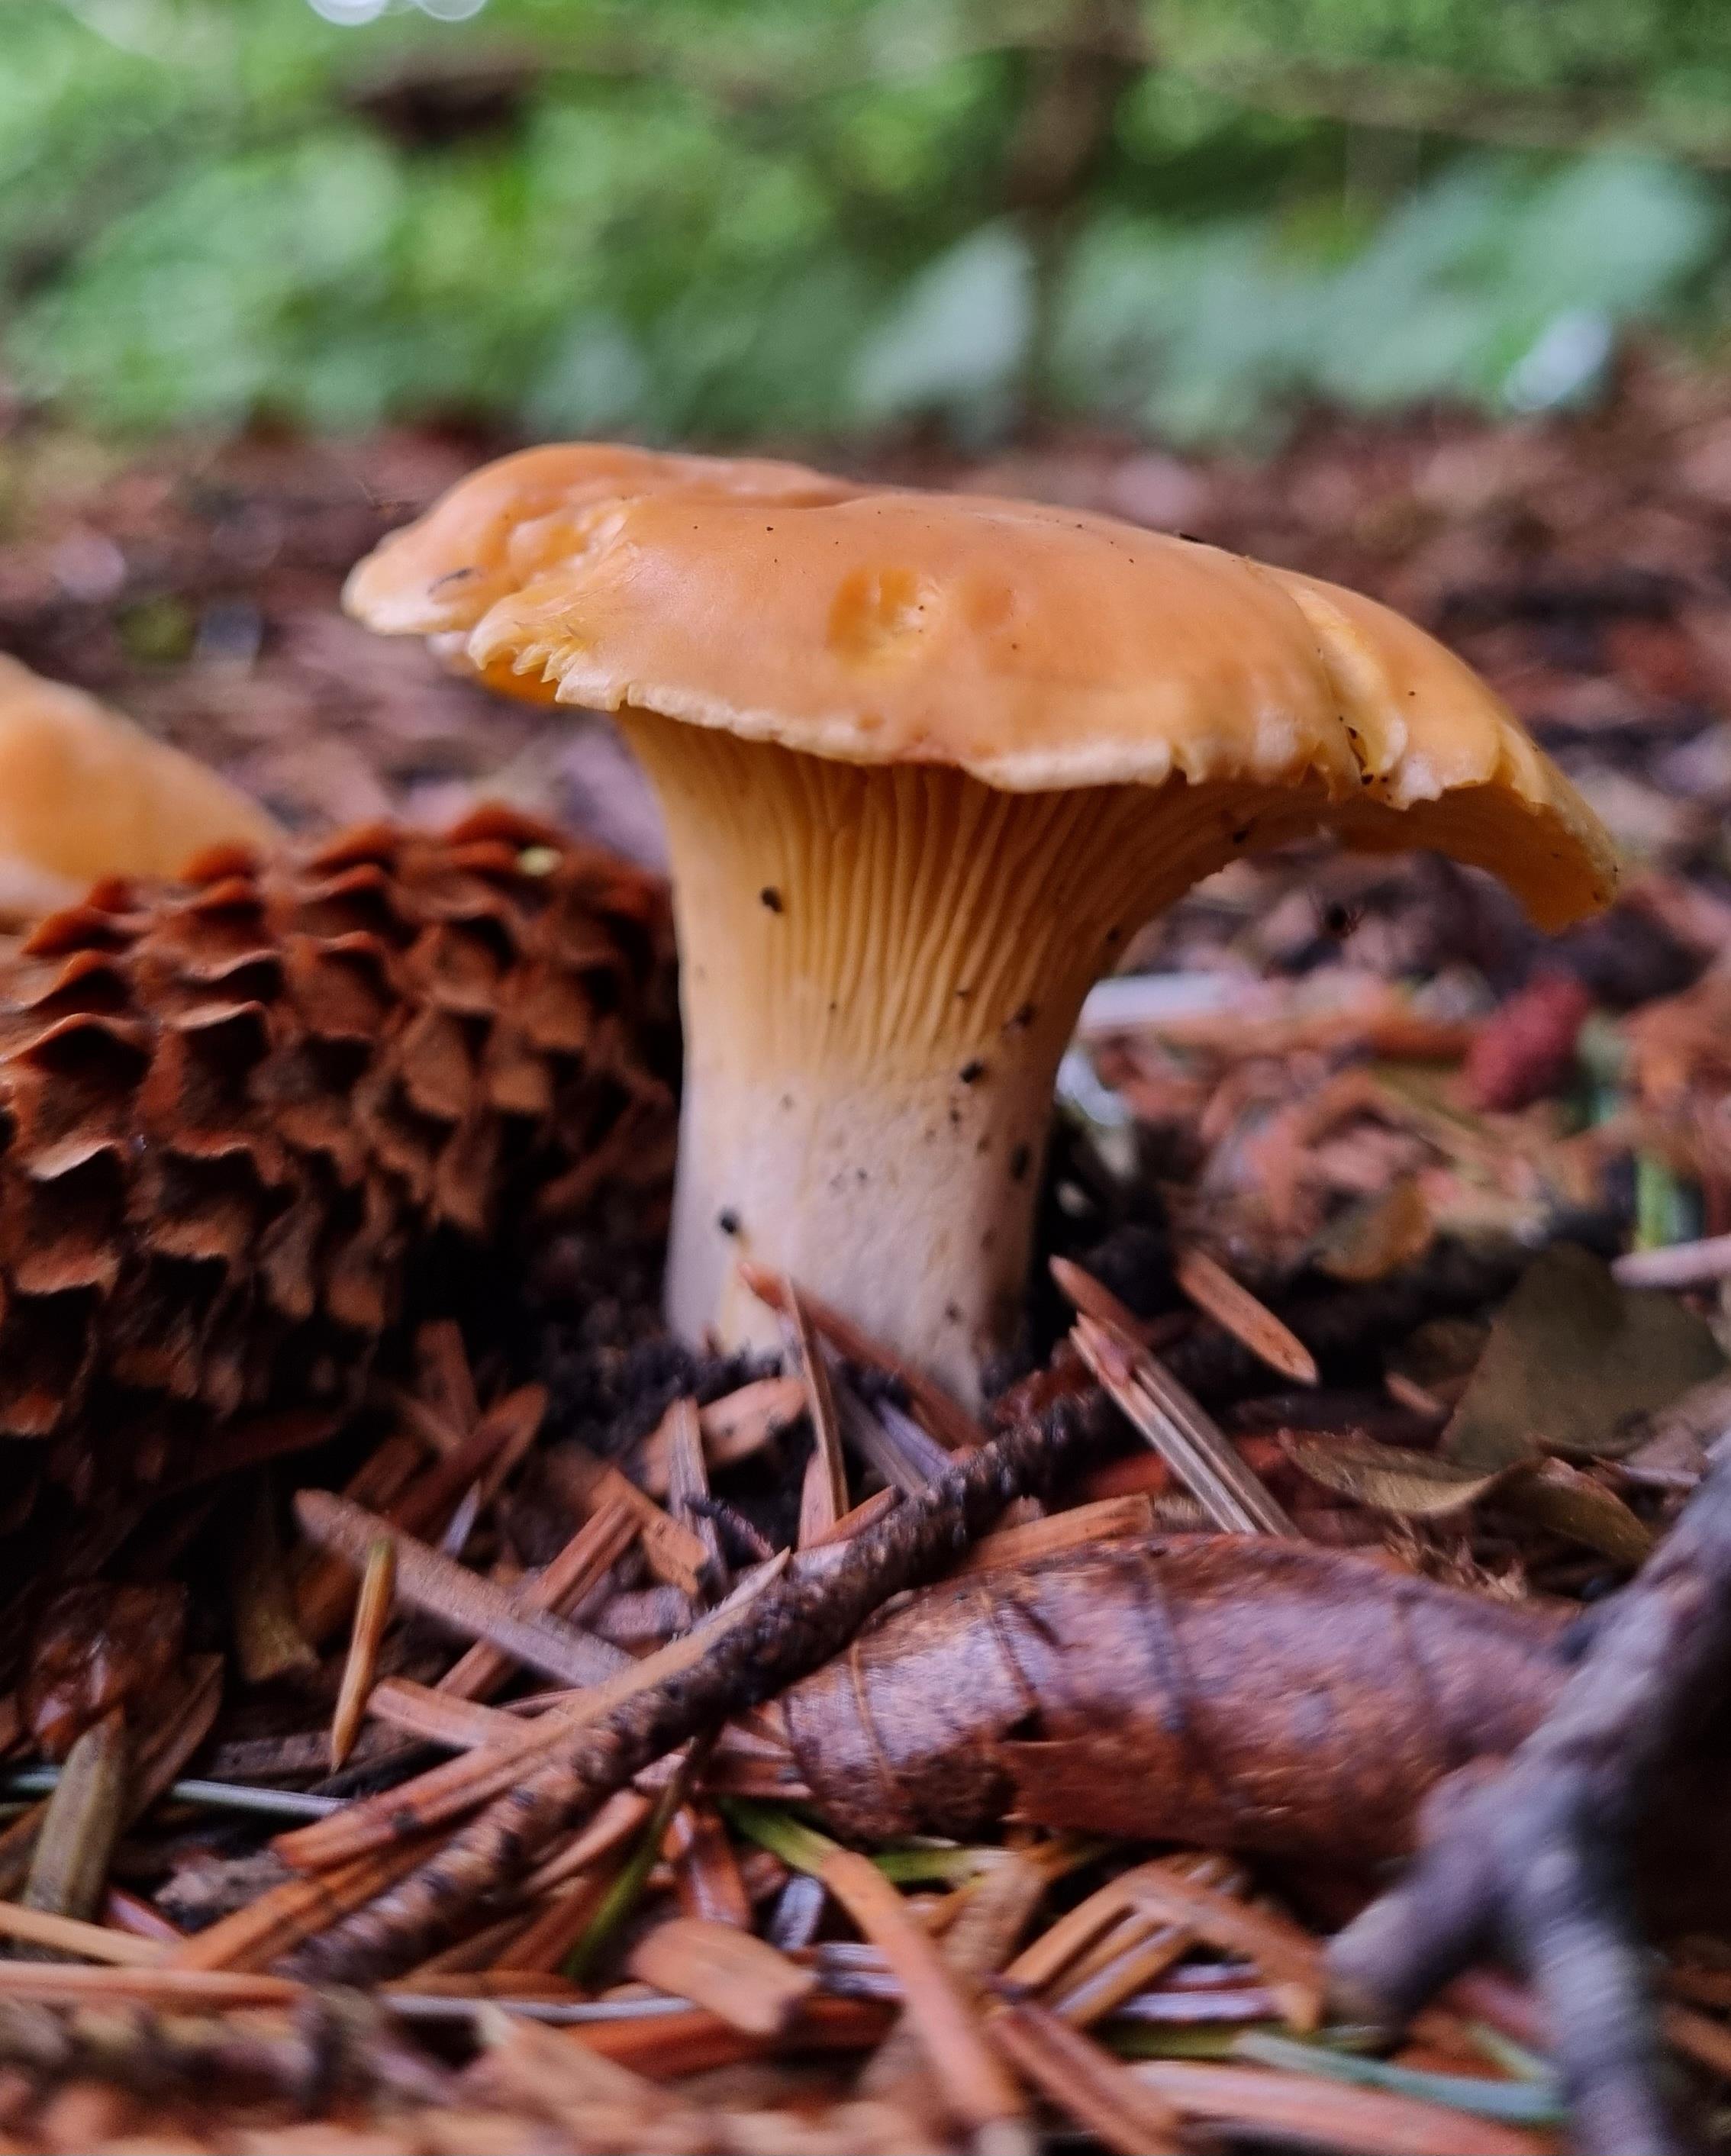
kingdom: Fungi
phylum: Basidiomycota
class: Agaricomycetes
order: Cantharellales
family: Hydnaceae
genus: Cantharellus
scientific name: Cantharellus
